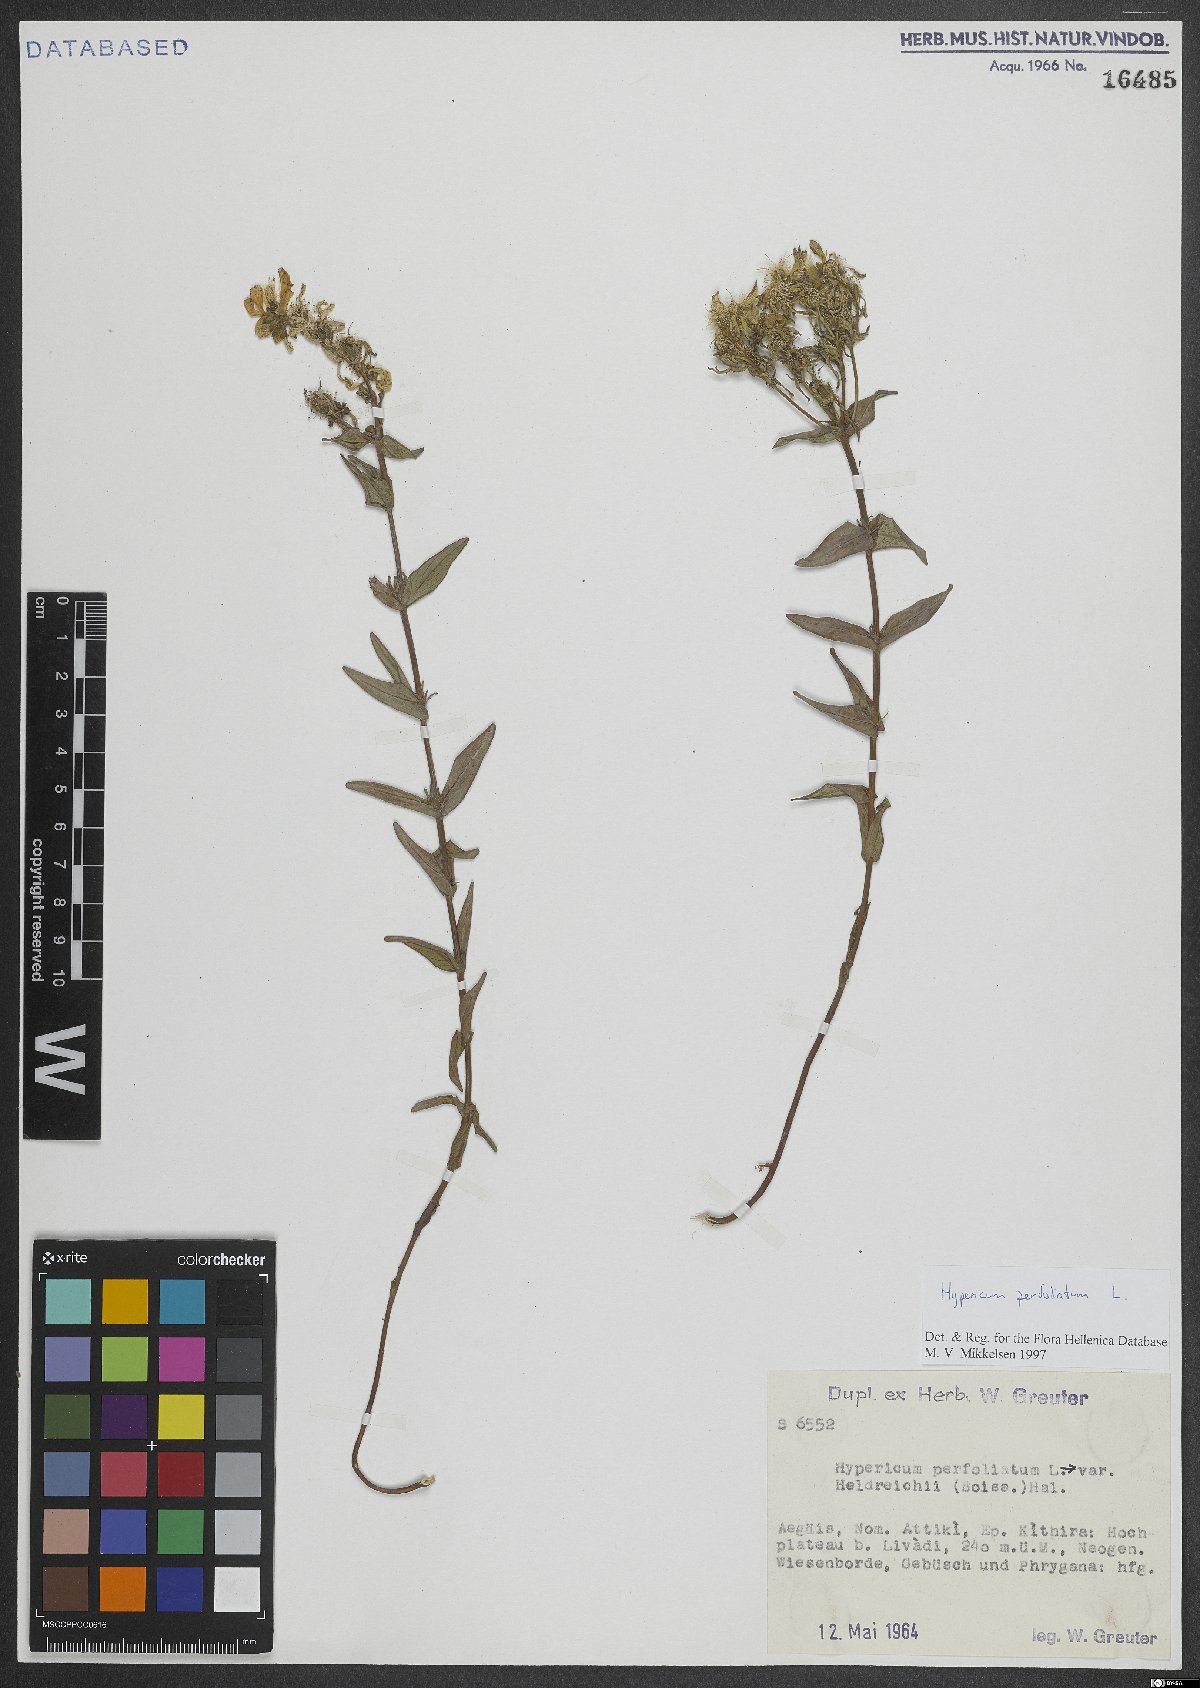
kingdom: Plantae
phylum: Tracheophyta
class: Magnoliopsida
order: Malpighiales
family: Hypericaceae
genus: Hypericum
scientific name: Hypericum perfoliatum
